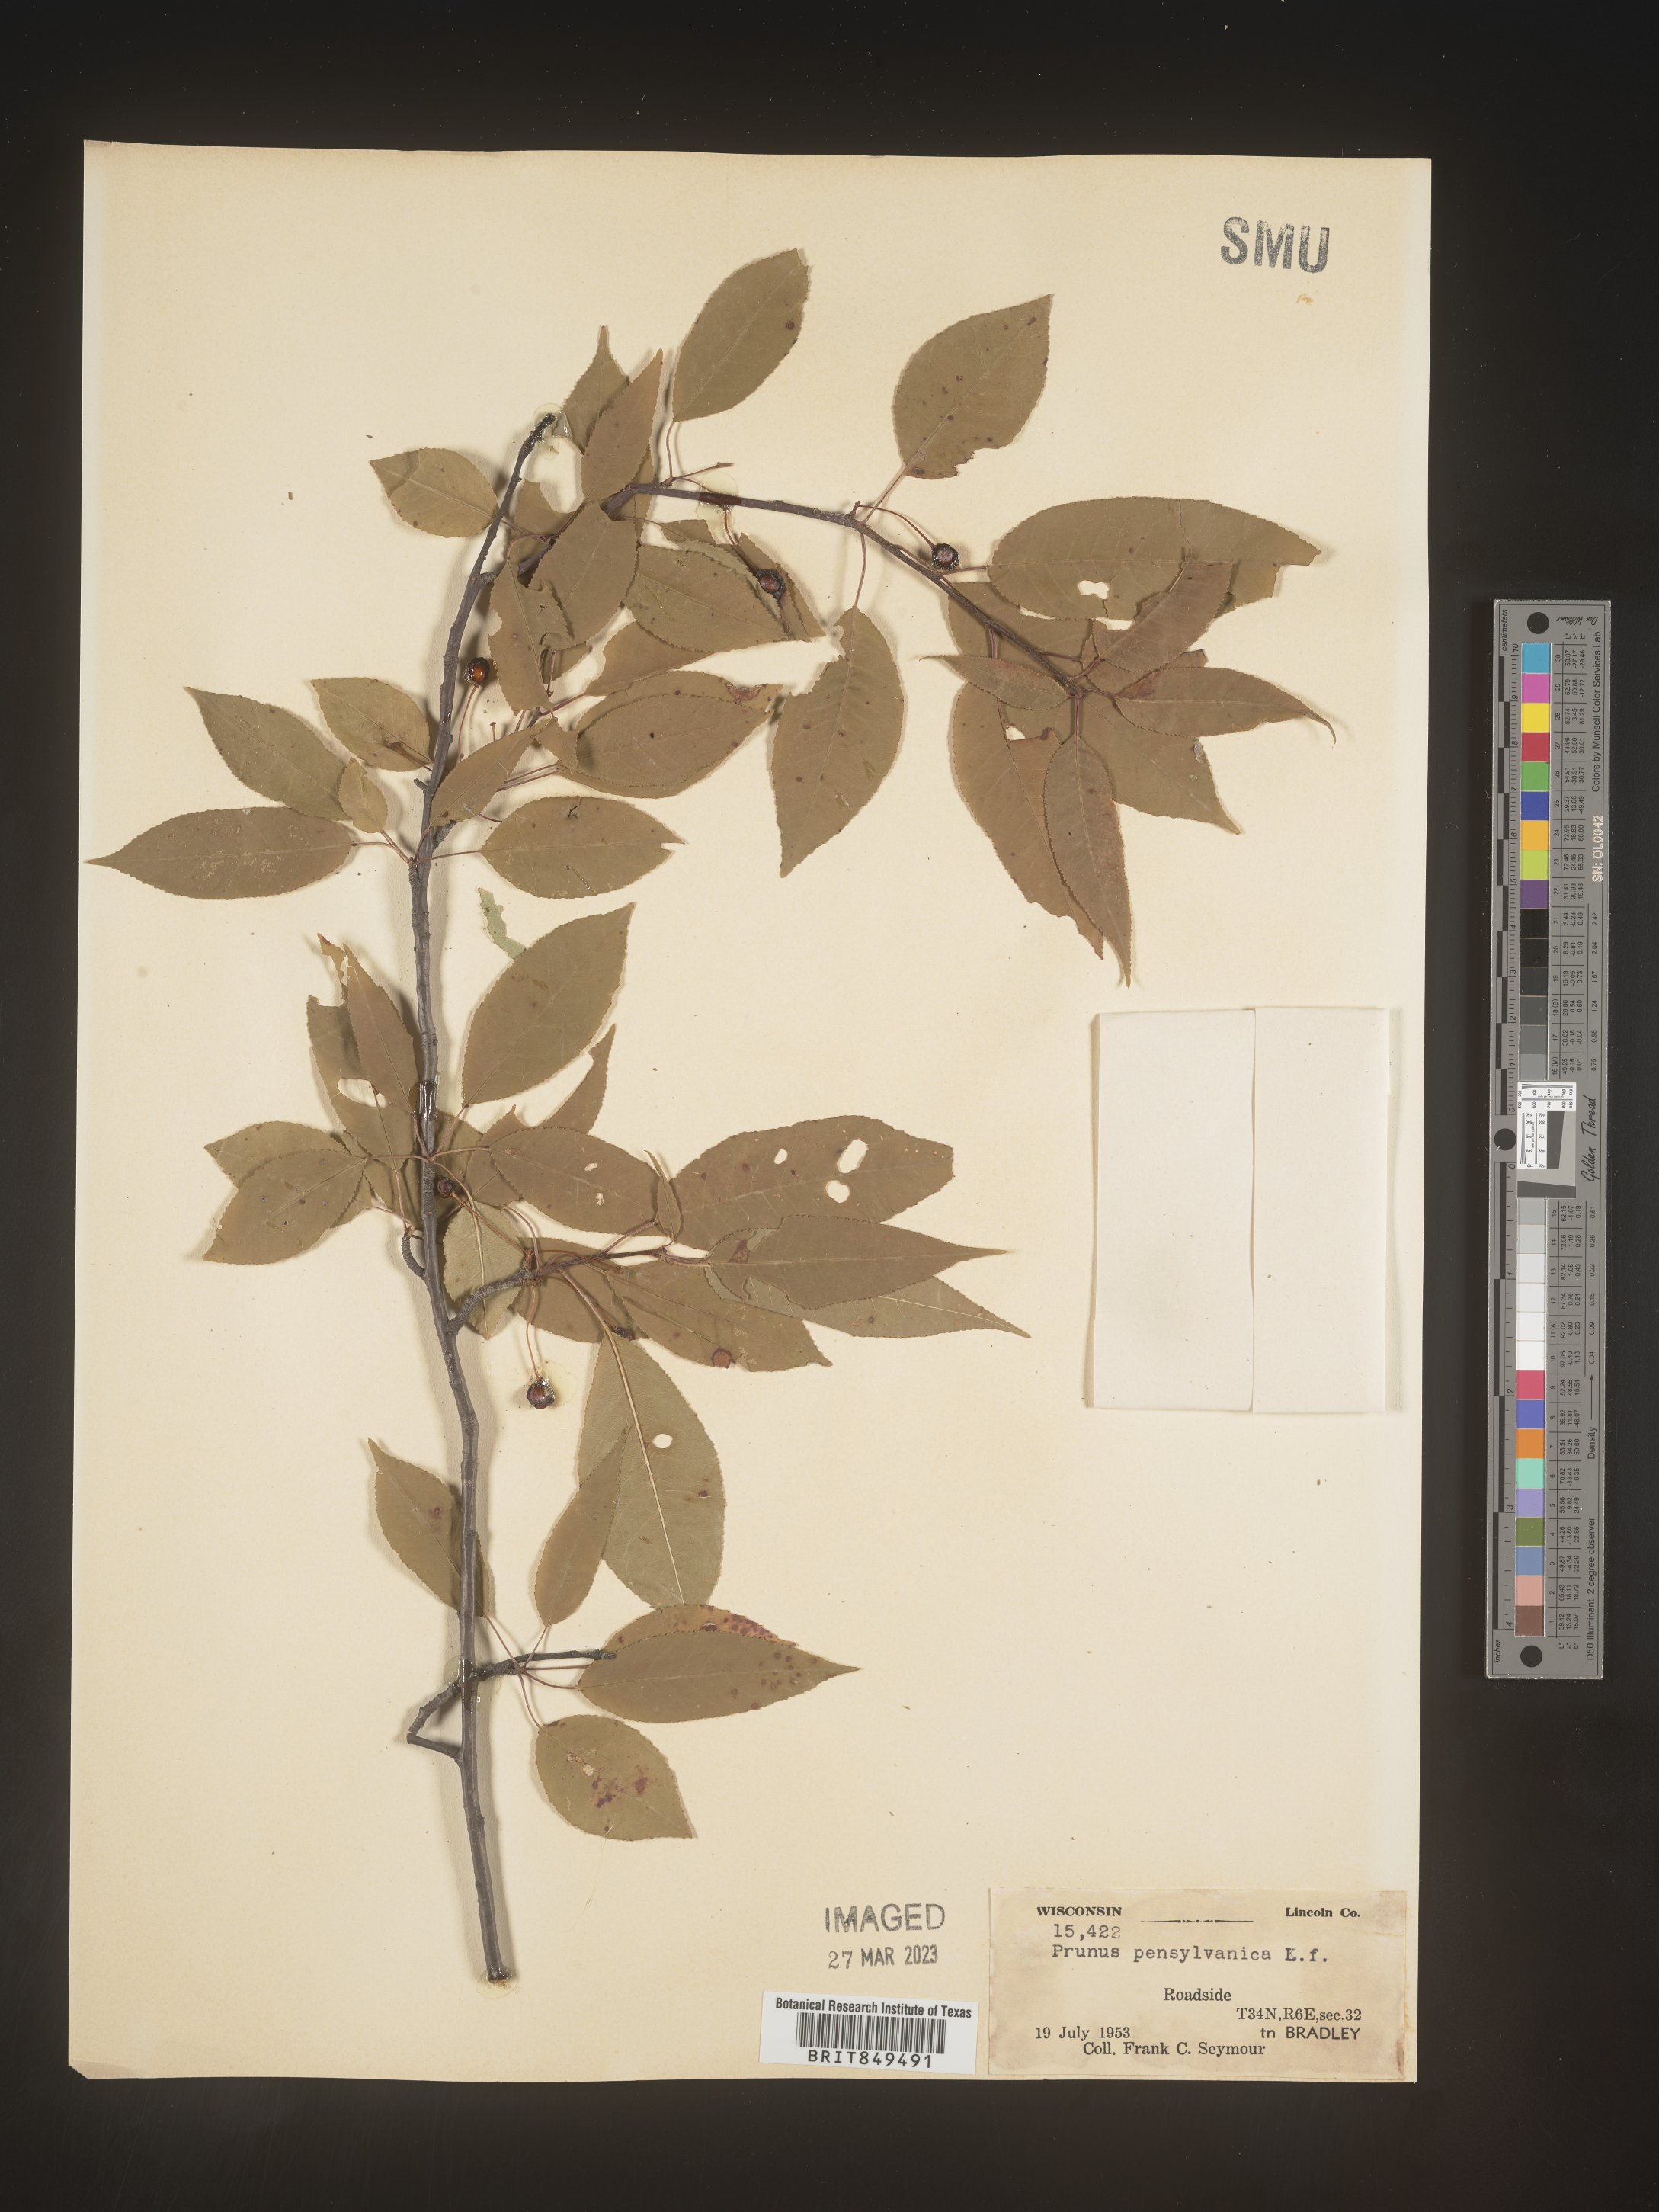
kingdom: Plantae
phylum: Tracheophyta
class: Magnoliopsida
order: Rosales
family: Rosaceae
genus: Prunus
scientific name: Prunus pensylvanica
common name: Pin cherry
